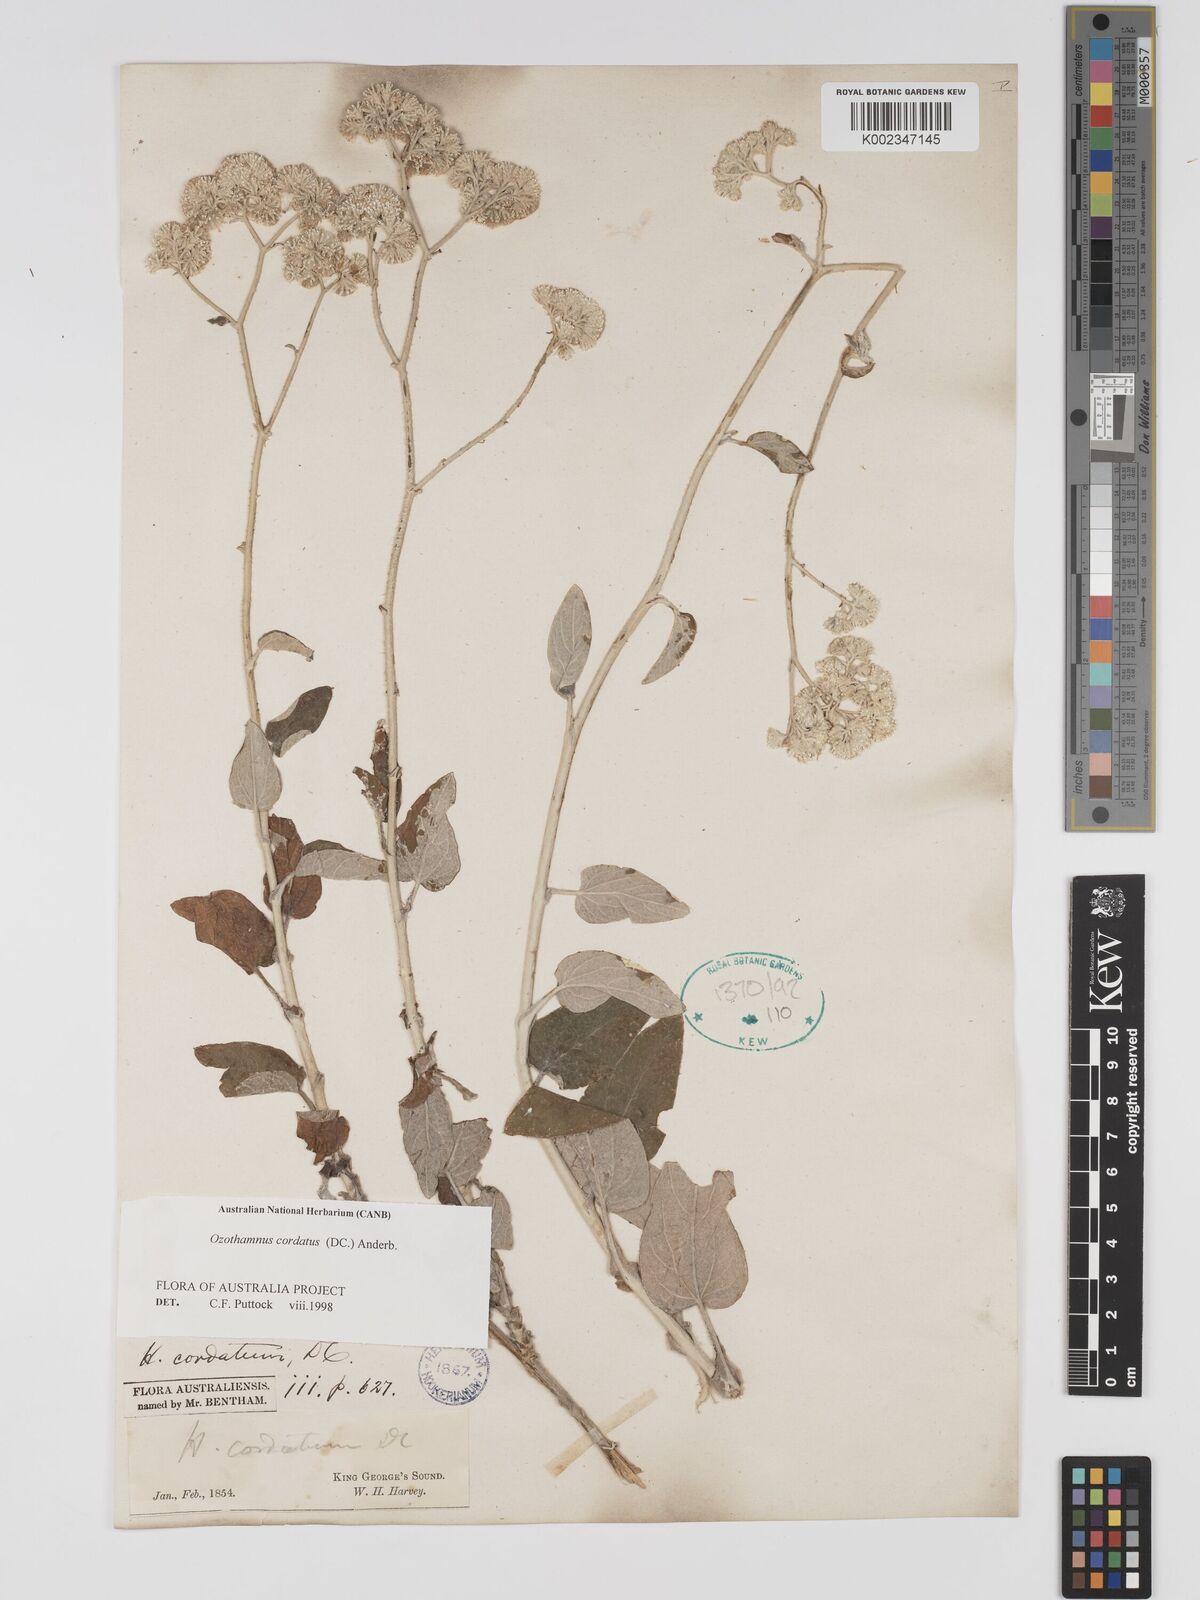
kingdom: Plantae
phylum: Tracheophyta
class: Magnoliopsida
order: Asterales
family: Asteraceae
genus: Ozothamnus
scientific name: Ozothamnus
